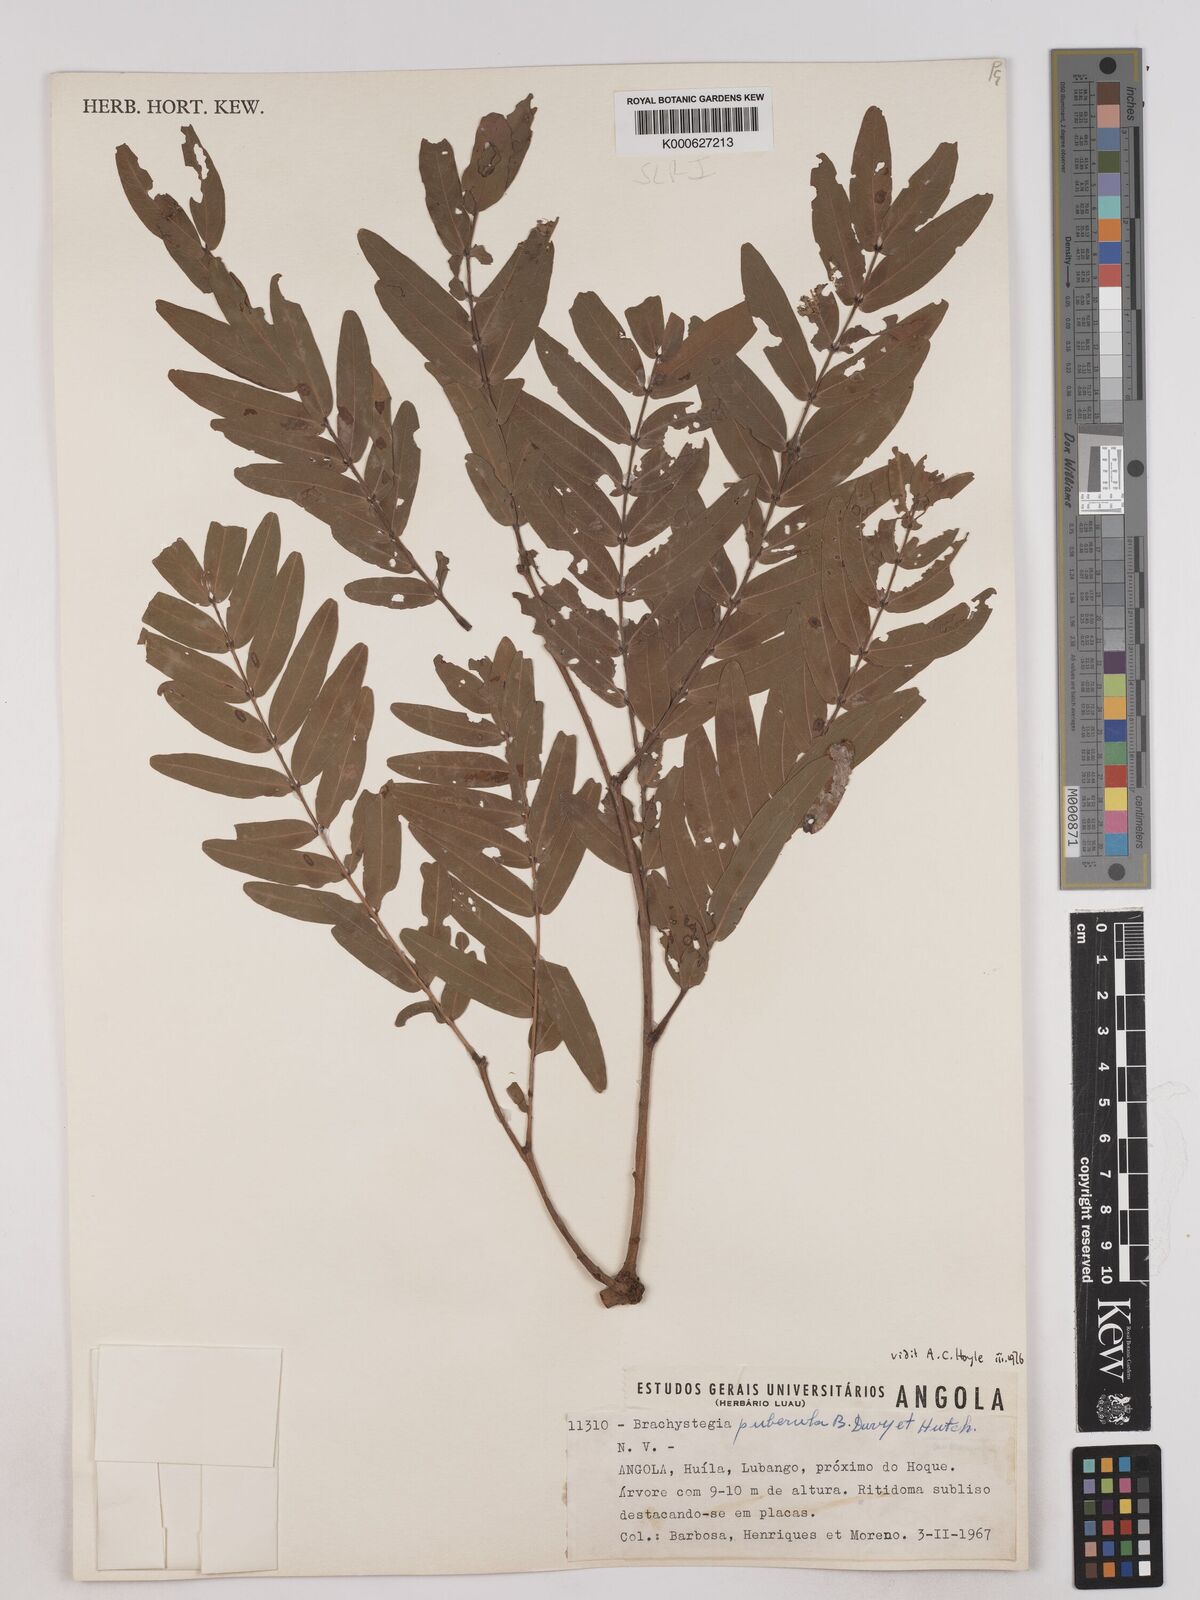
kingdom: Plantae
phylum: Tracheophyta
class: Magnoliopsida
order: Fabales
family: Fabaceae
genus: Brachystegia
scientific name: Brachystegia puberula
